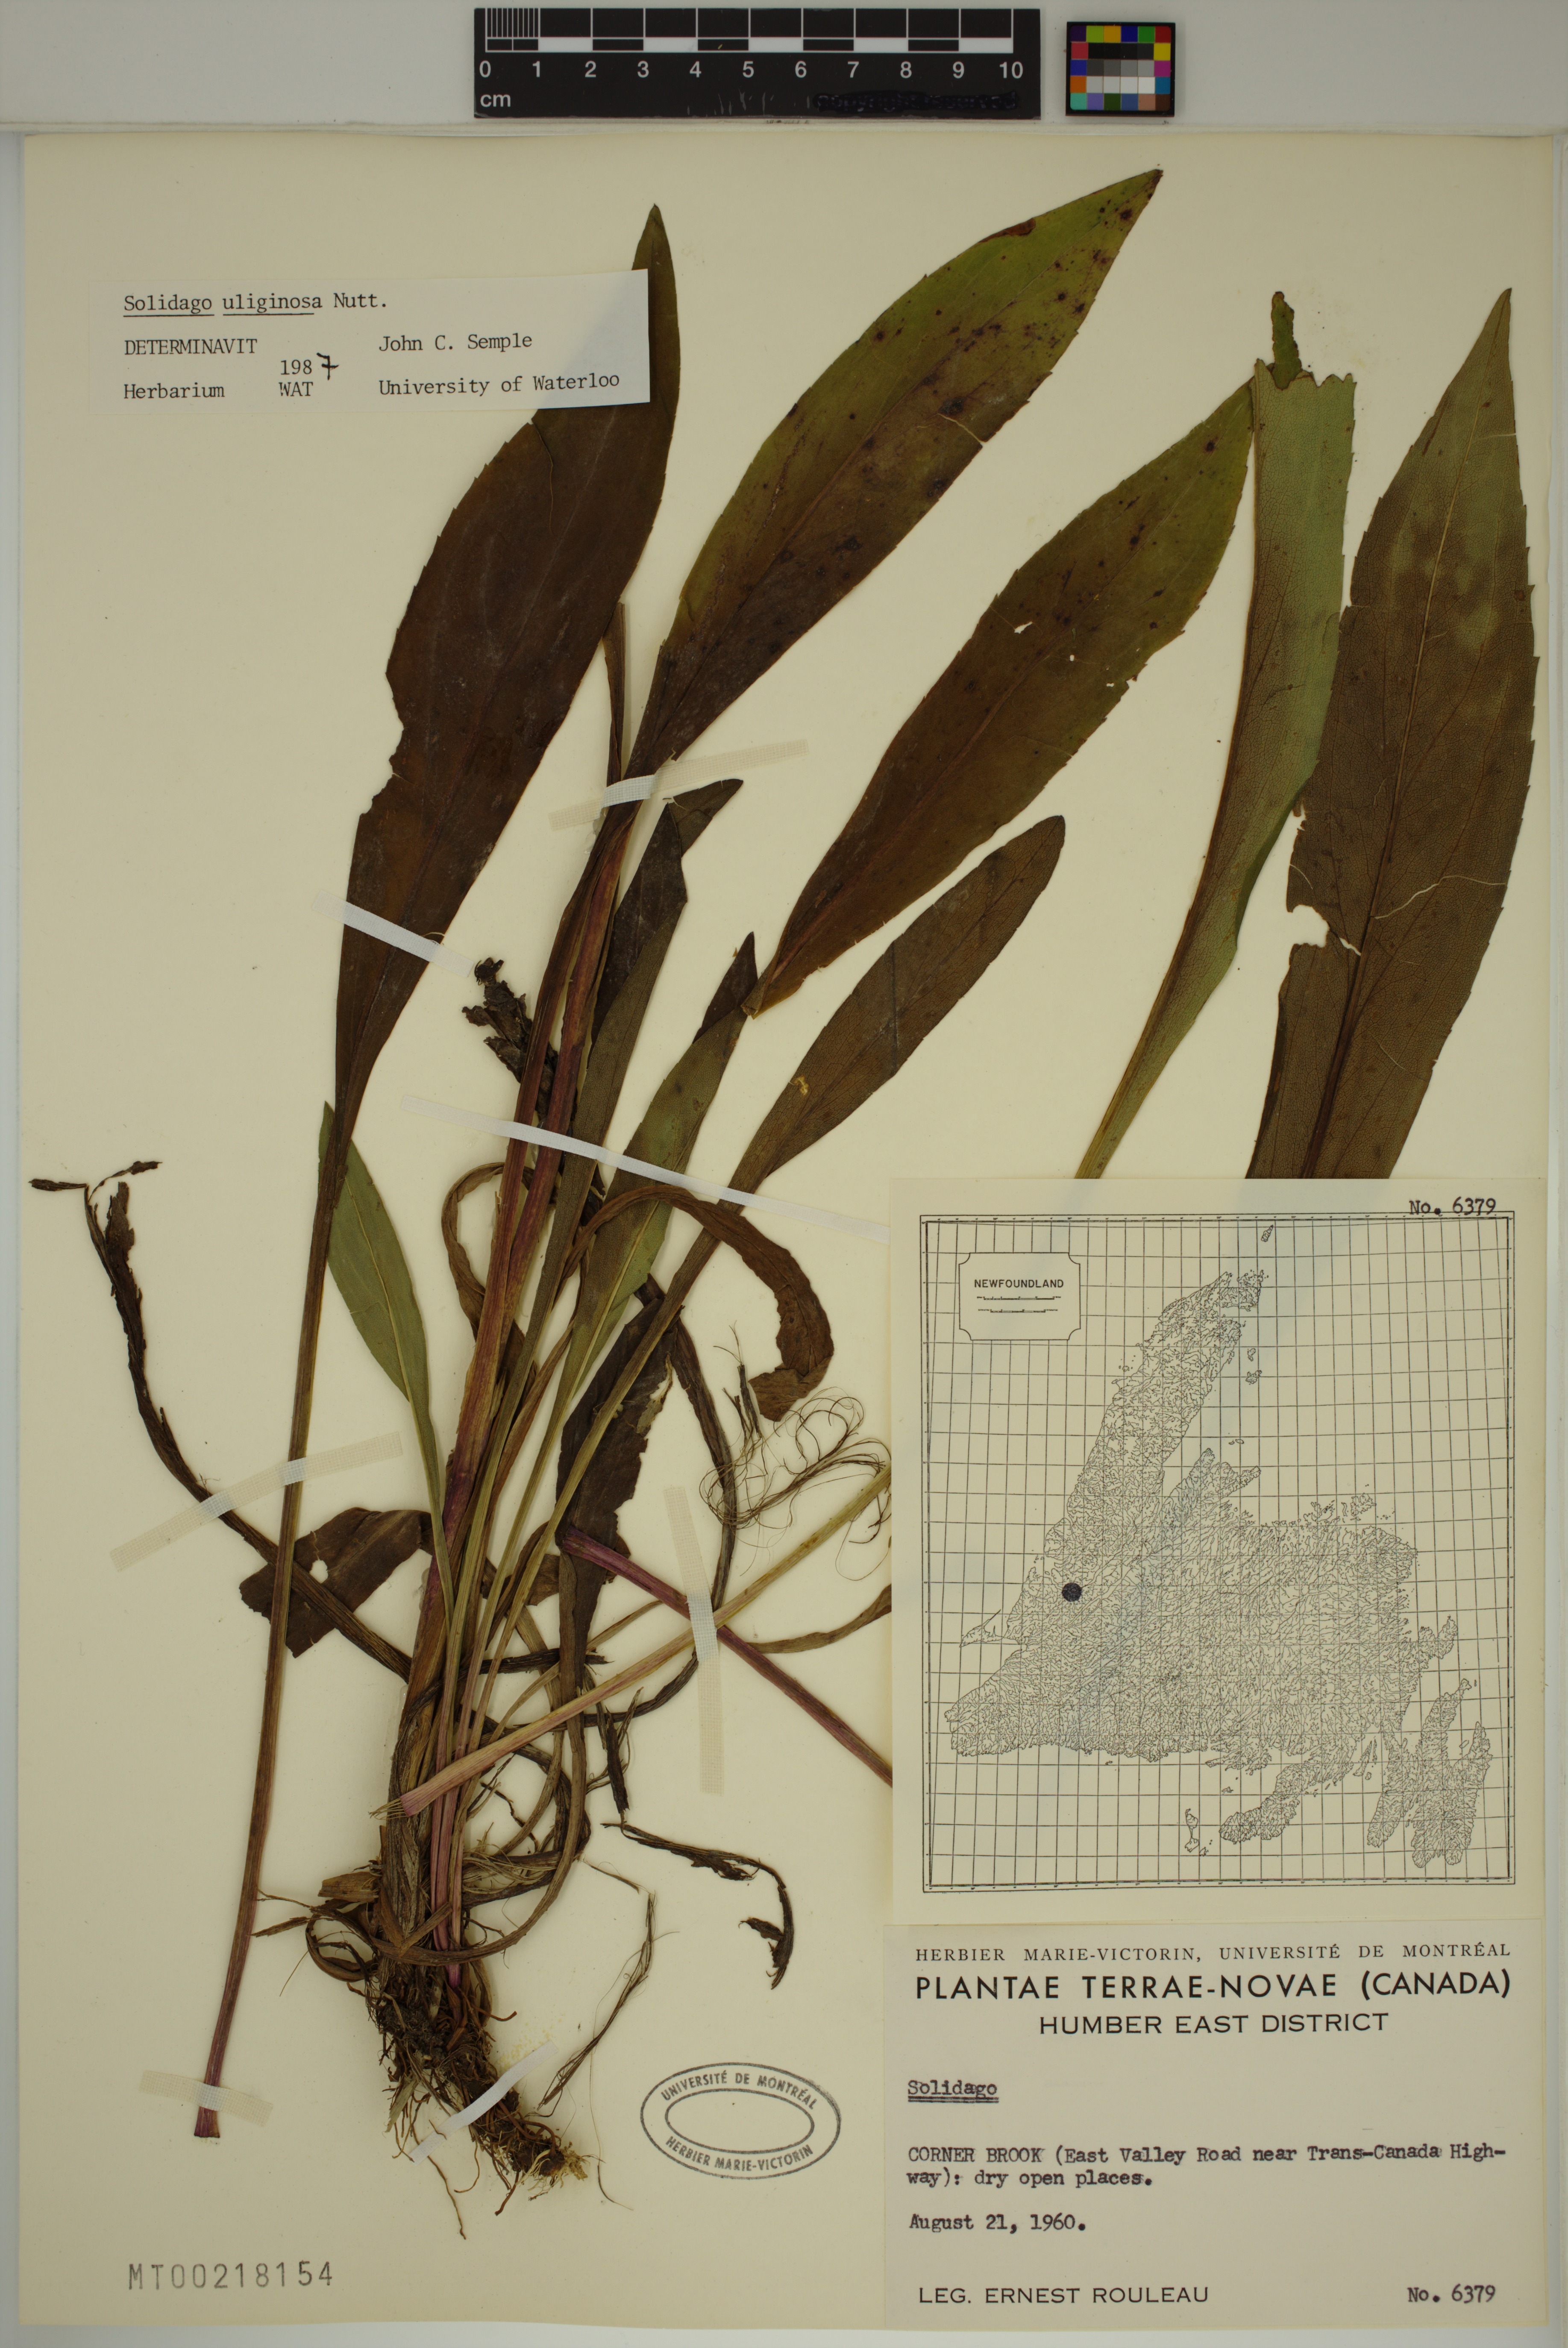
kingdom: Plantae
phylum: Tracheophyta
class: Magnoliopsida
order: Asterales
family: Asteraceae
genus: Solidago
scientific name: Solidago uliginosa
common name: Bog goldenrod
